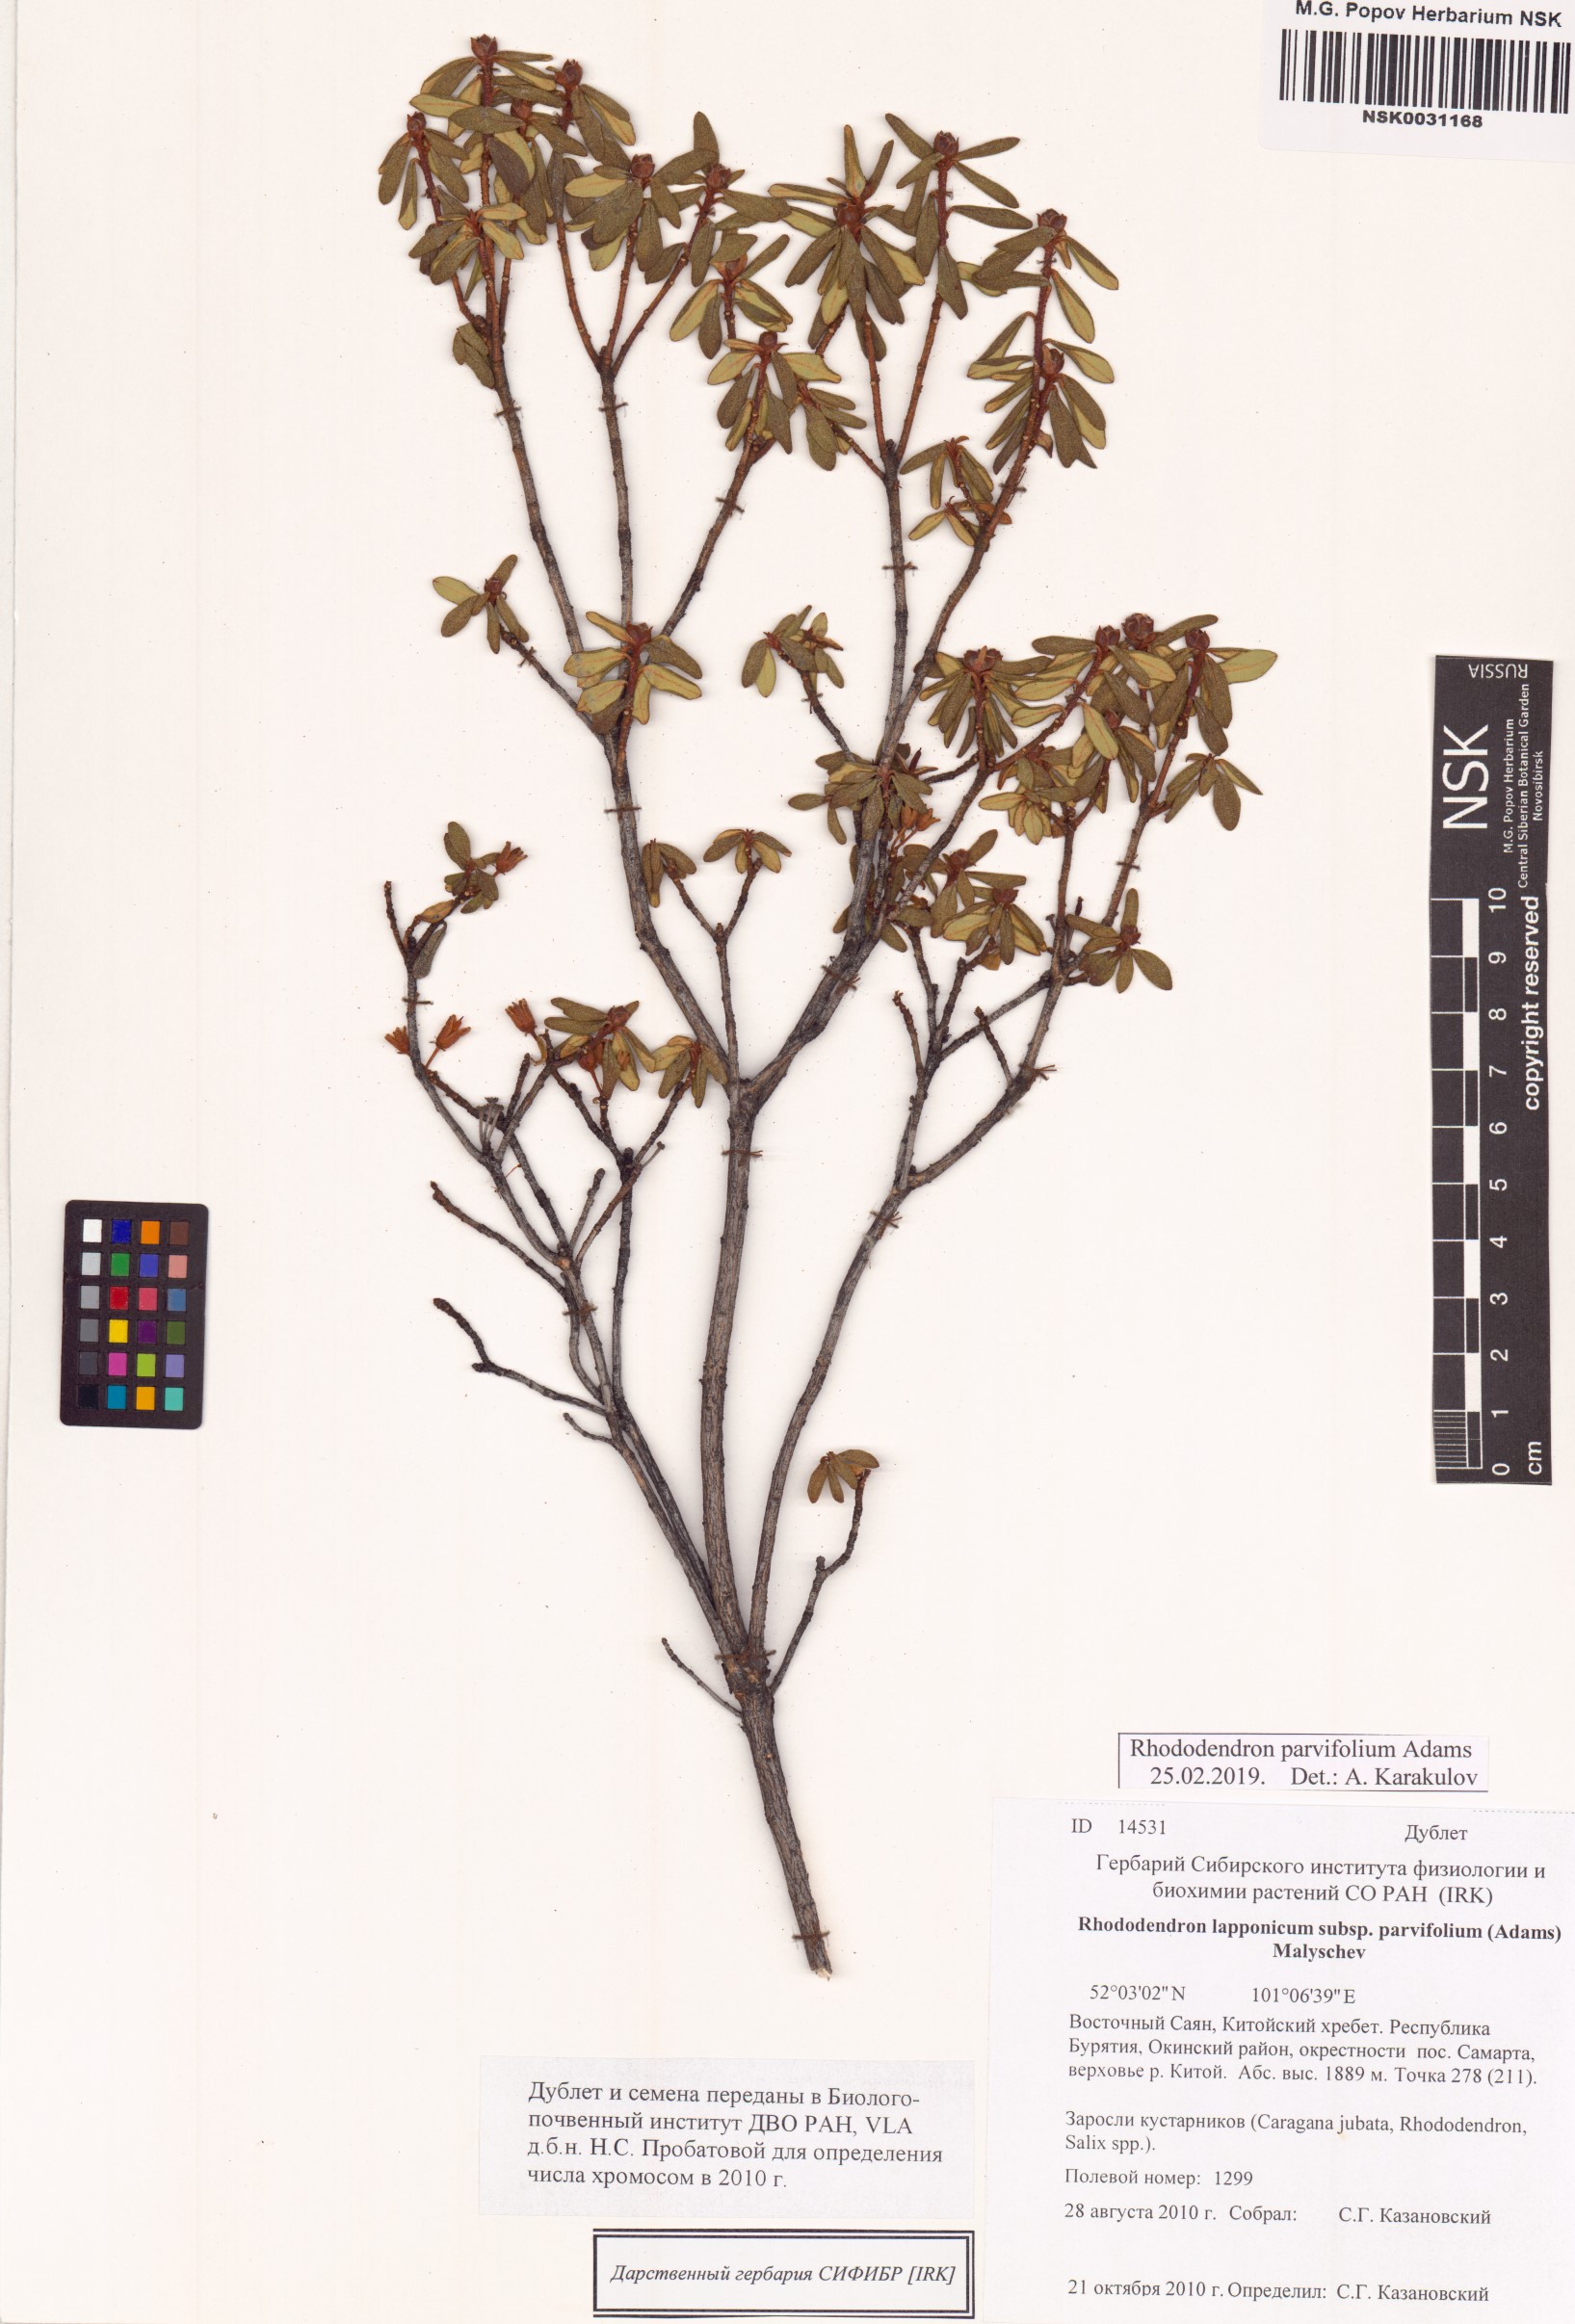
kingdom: Plantae
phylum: Tracheophyta
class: Magnoliopsida
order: Ericales
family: Ericaceae
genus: Rhododendron
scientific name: Rhododendron parvifolium
